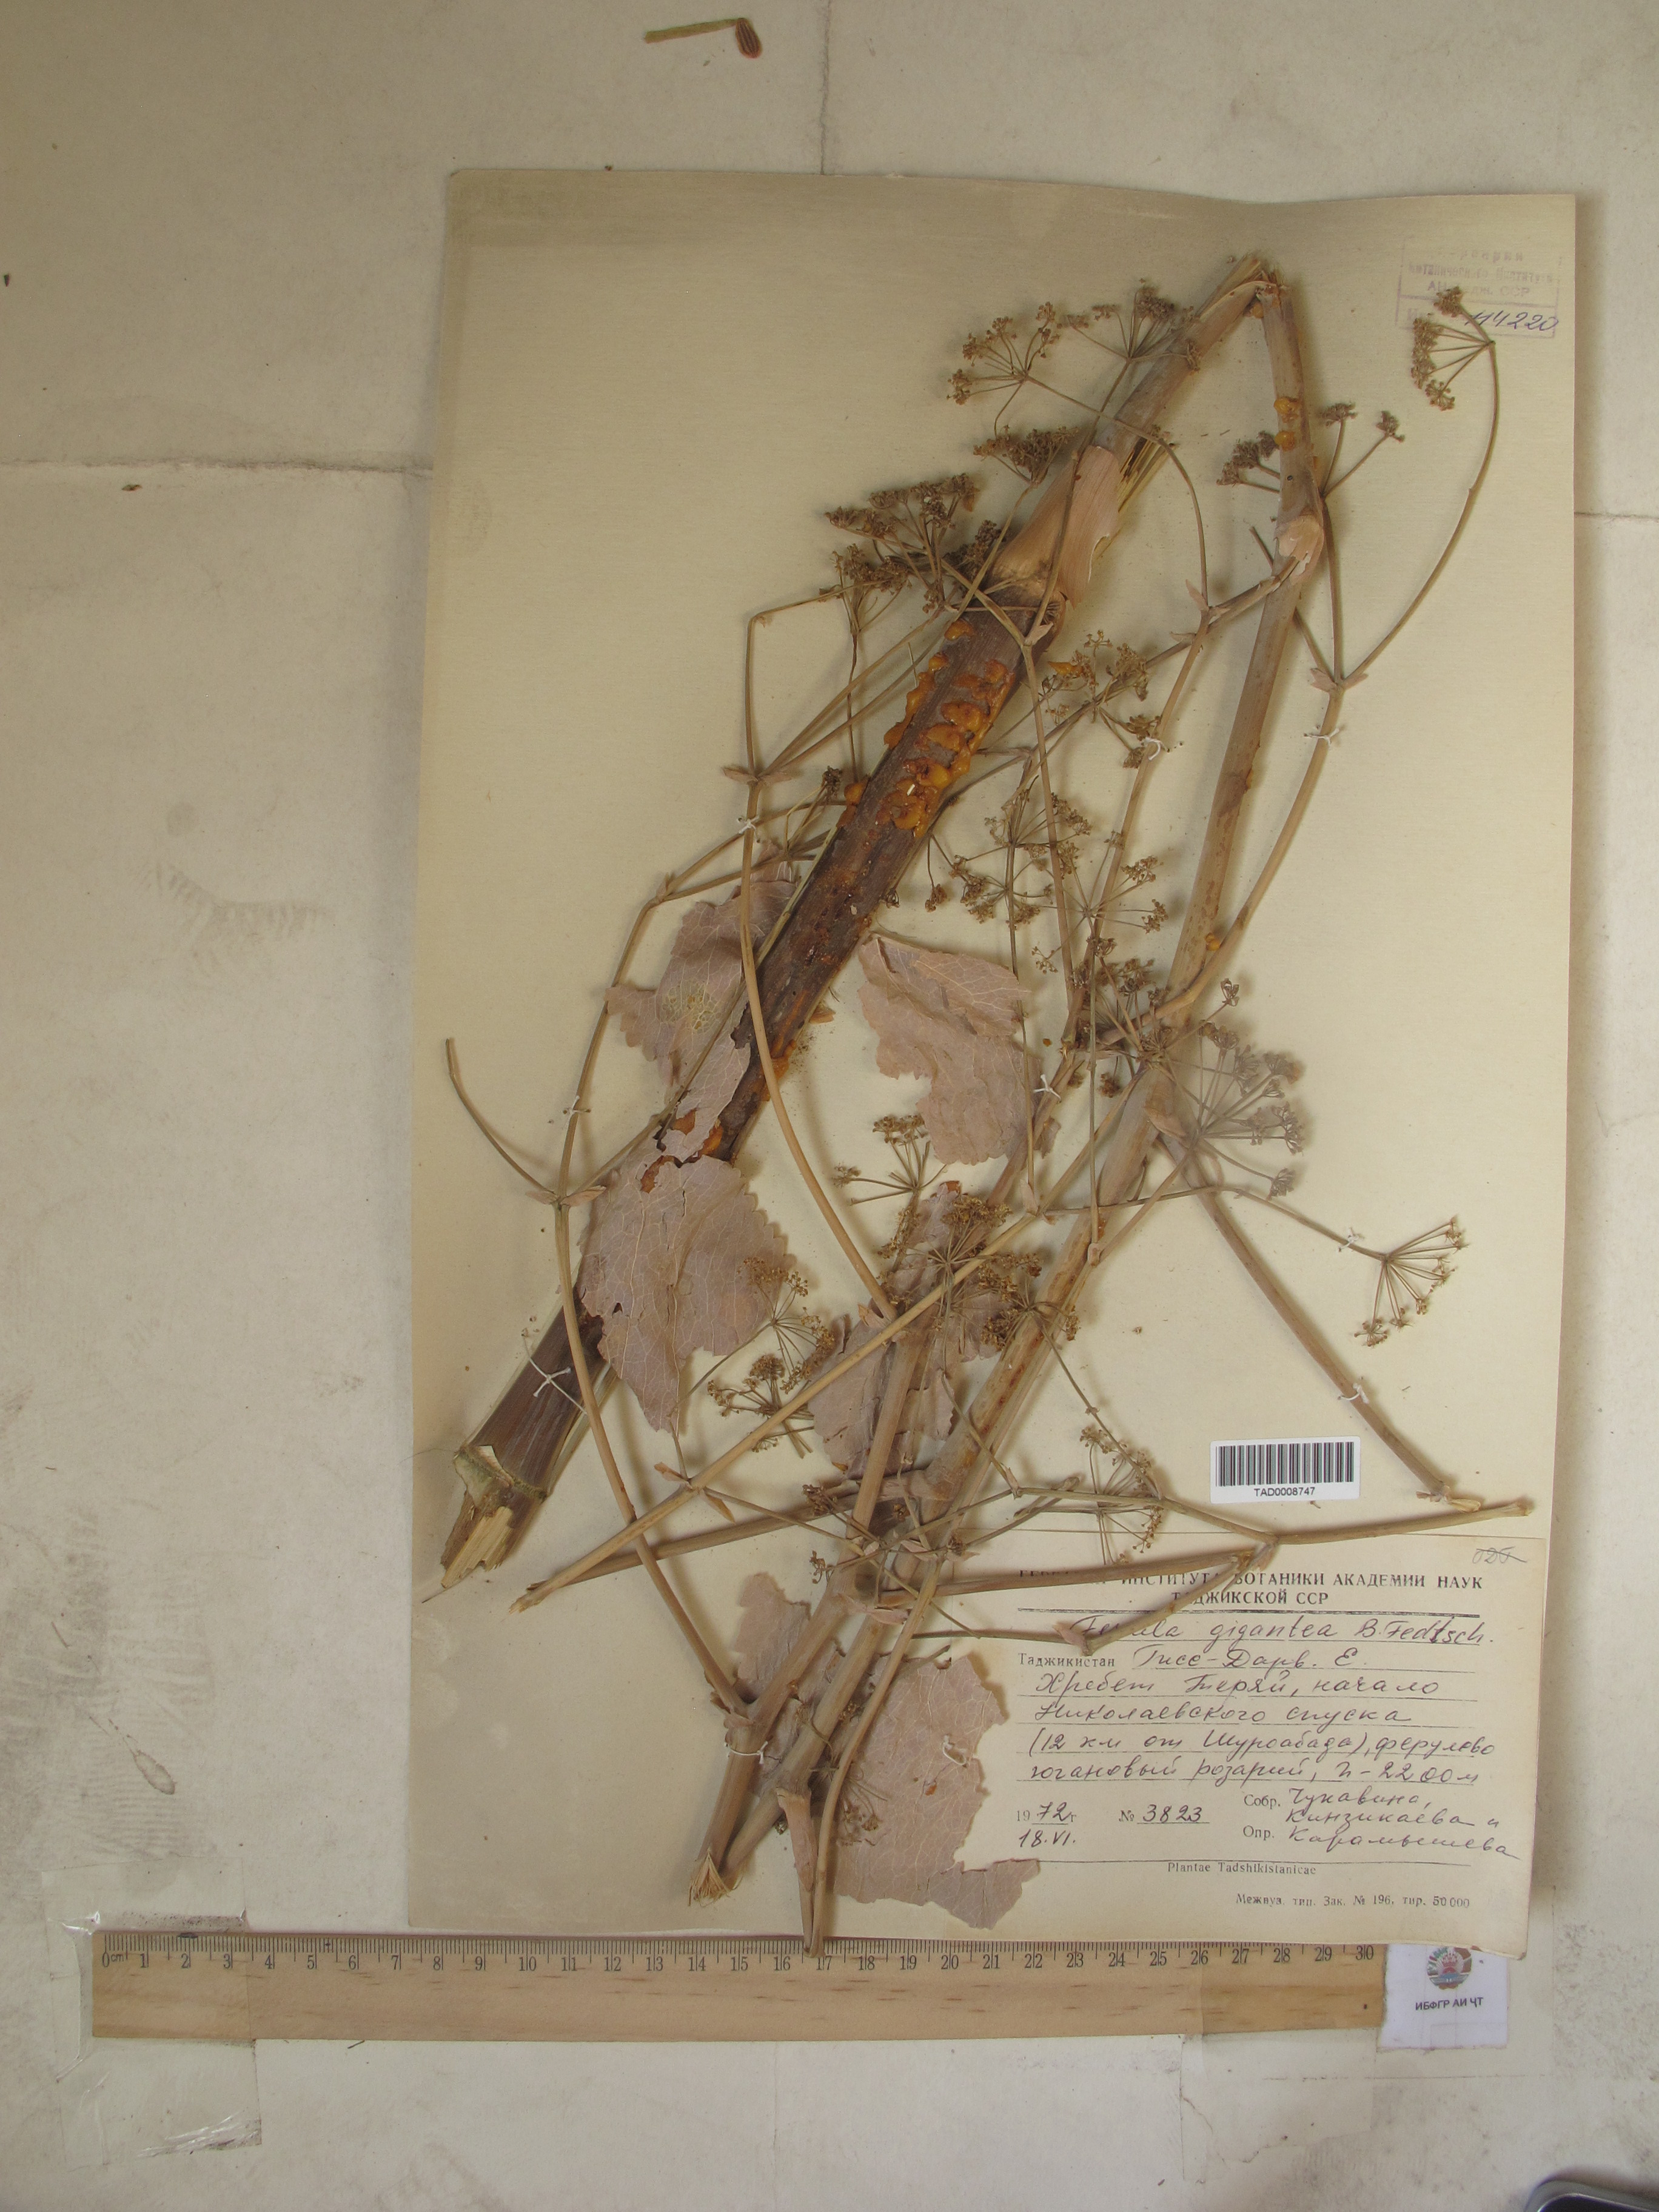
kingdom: Plantae
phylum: Tracheophyta
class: Magnoliopsida
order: Apiales
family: Apiaceae
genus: Ferula
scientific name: Ferula gigantea
